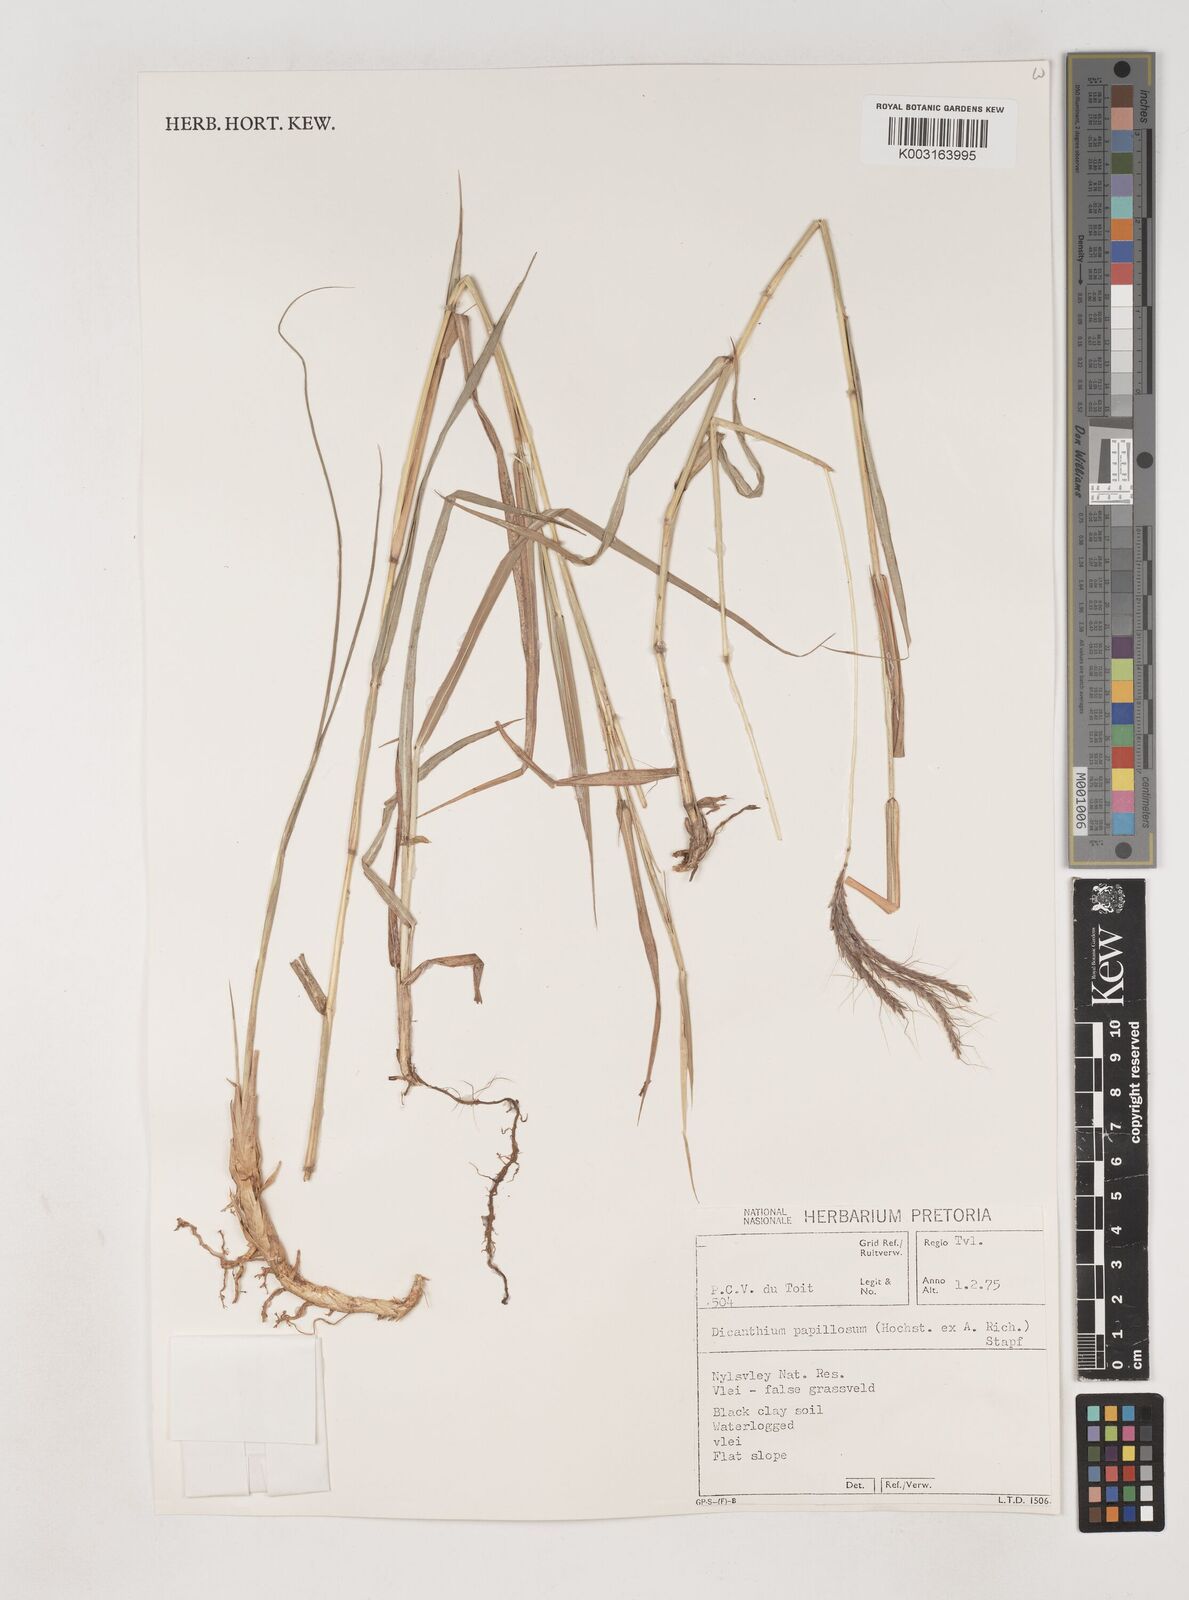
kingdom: Plantae
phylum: Tracheophyta
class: Liliopsida
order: Poales
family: Poaceae
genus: Dichanthium
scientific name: Dichanthium annulatum
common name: Kleberg's bluestem
